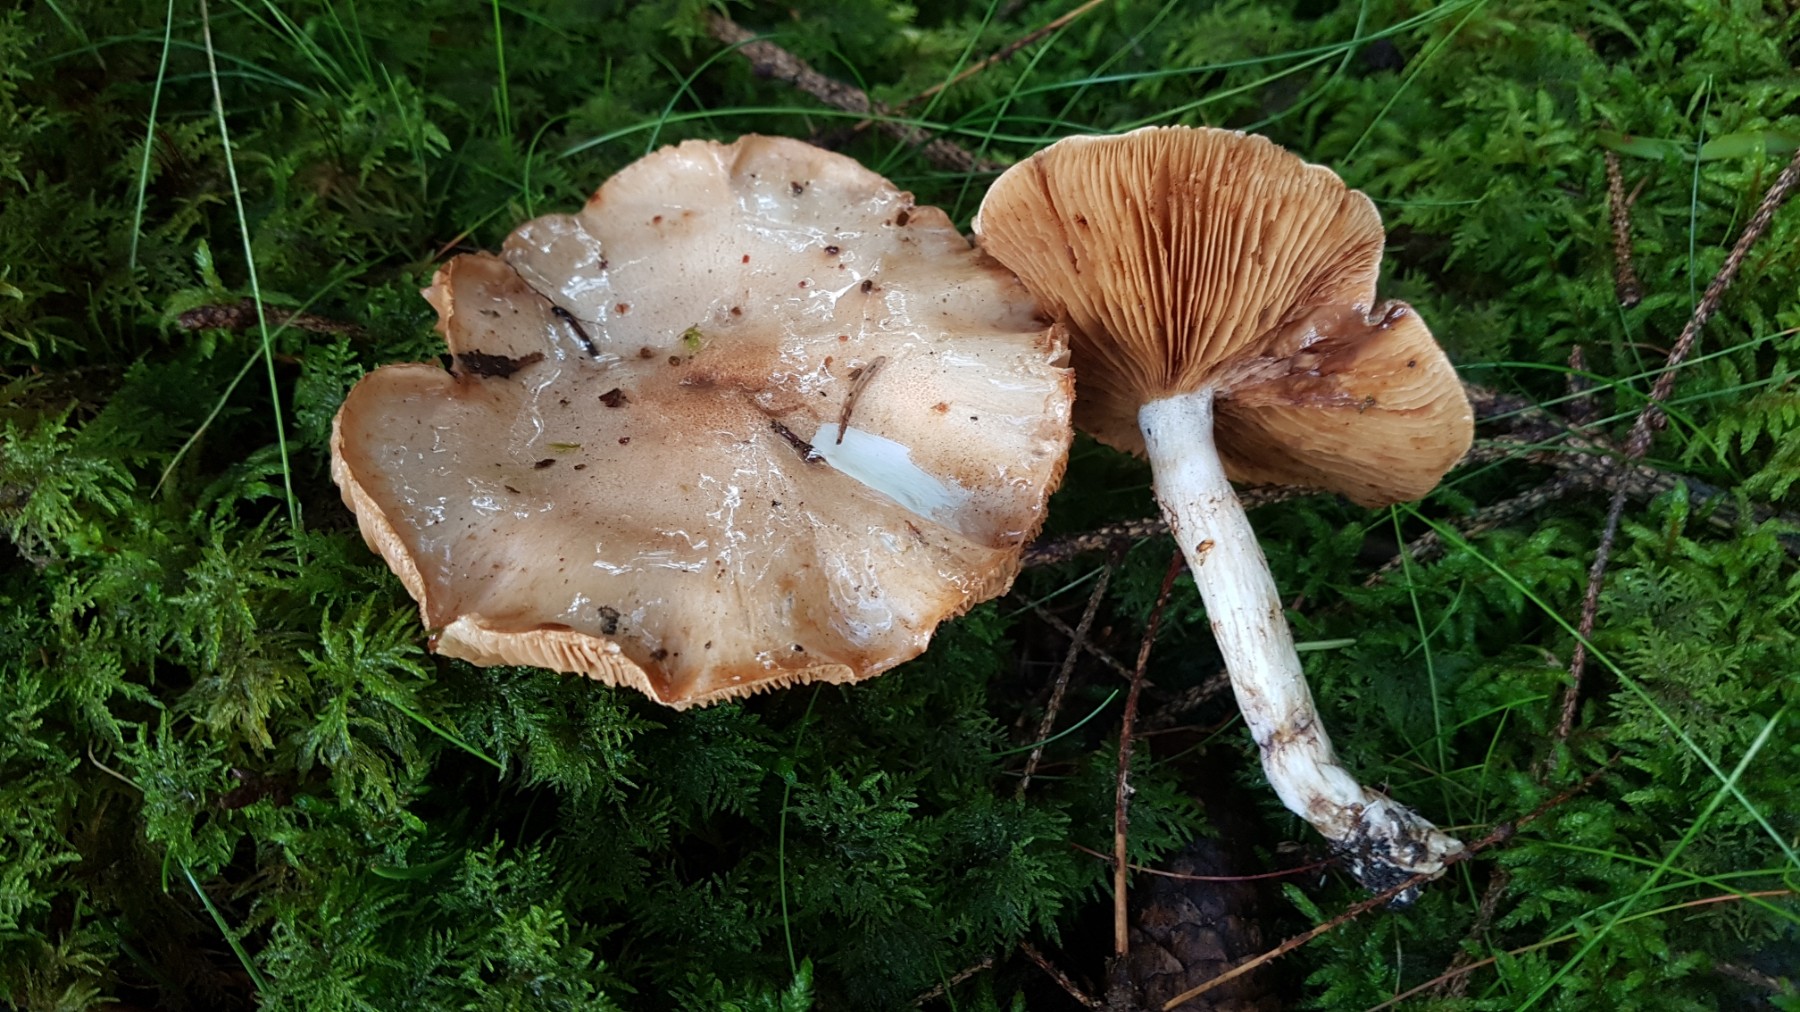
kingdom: Fungi
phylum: Basidiomycota
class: Agaricomycetes
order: Agaricales
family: Cortinariaceae
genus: Phlegmacium
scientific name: Phlegmacium papulosum
